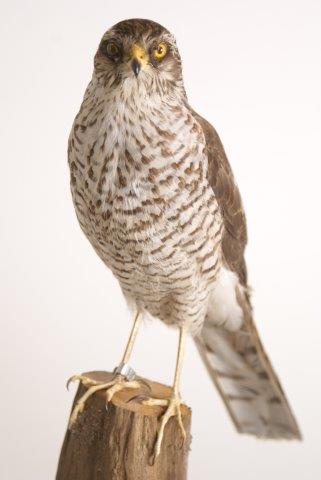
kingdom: Animalia
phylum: Chordata
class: Aves
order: Accipitriformes
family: Accipitridae
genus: Accipiter
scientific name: Accipiter nisus
